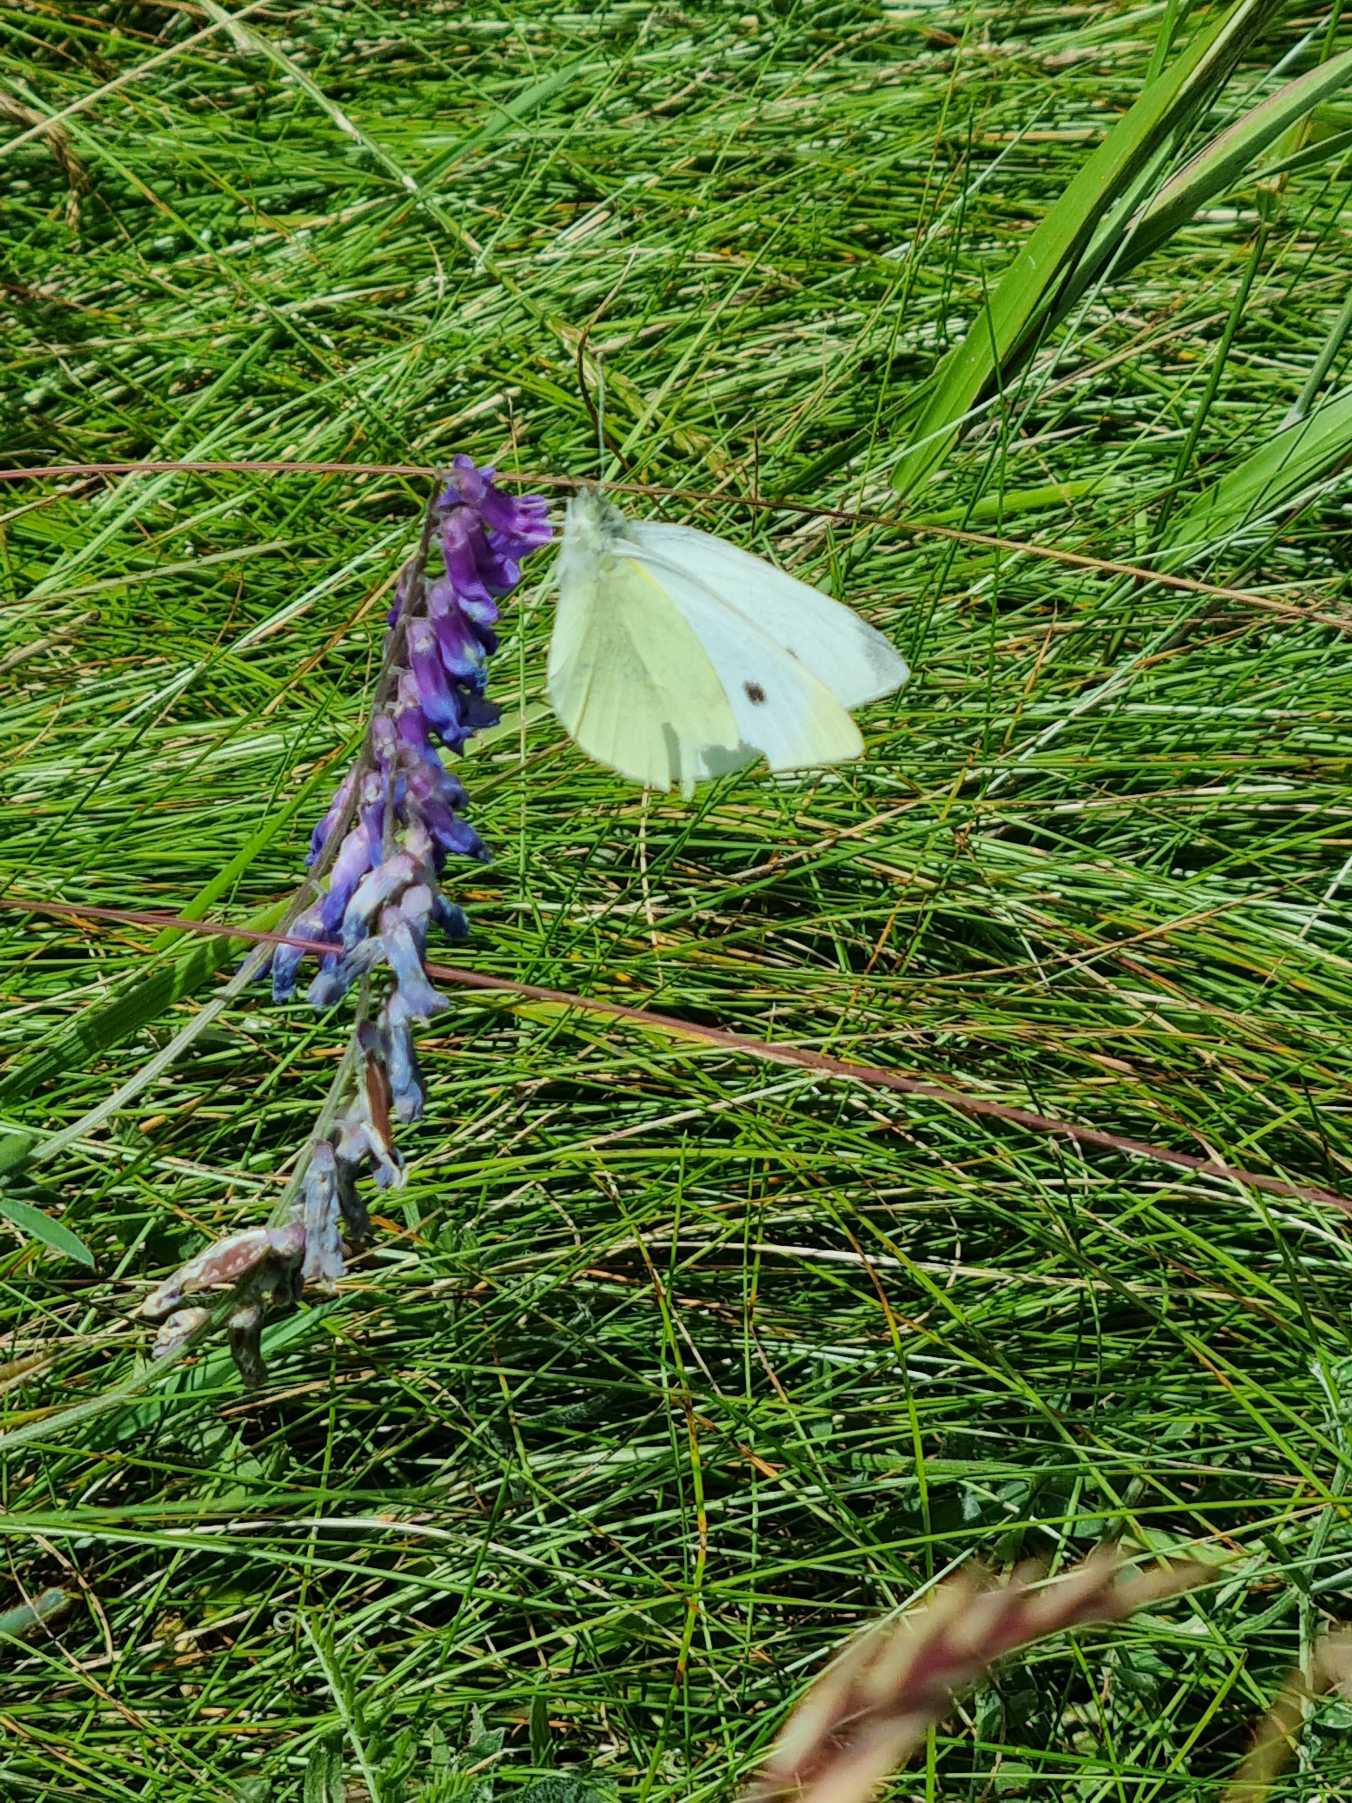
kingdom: Animalia
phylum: Arthropoda
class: Insecta
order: Lepidoptera
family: Pieridae
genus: Pieris
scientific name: Pieris rapae
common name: Lille kålsommerfugl
